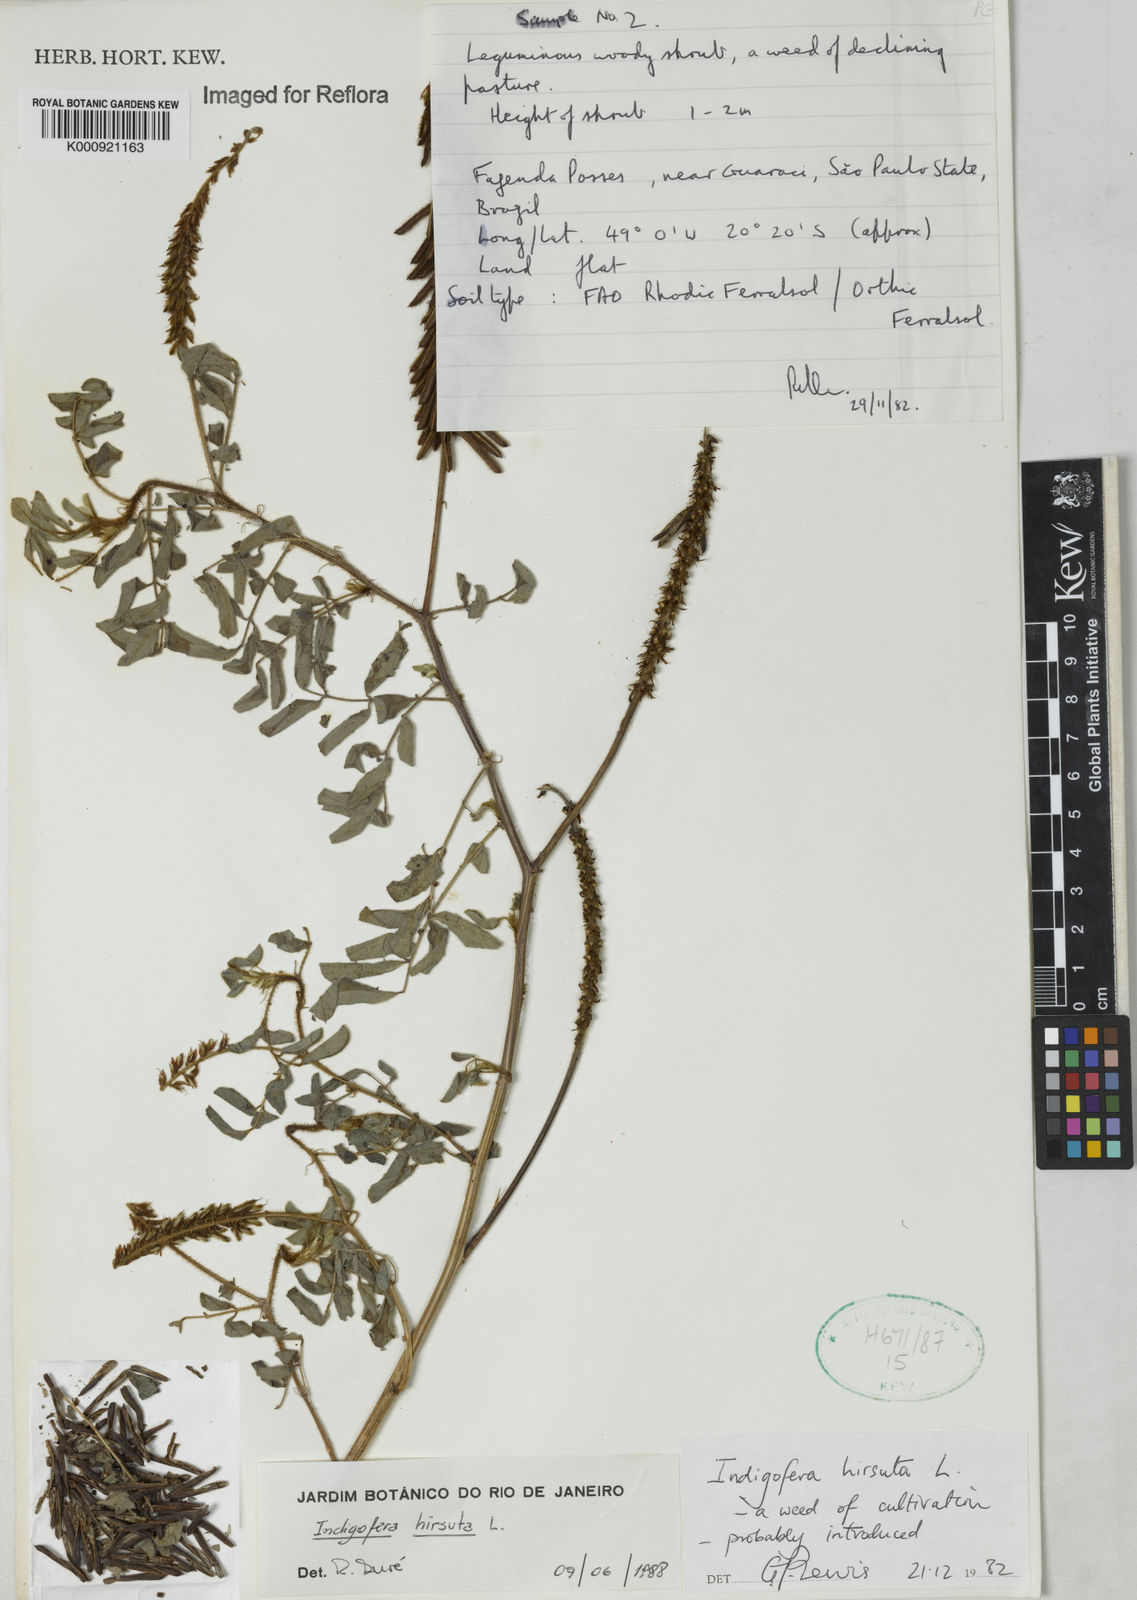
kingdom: Plantae
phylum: Tracheophyta
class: Magnoliopsida
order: Fabales
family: Fabaceae
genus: Indigofera
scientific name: Indigofera
